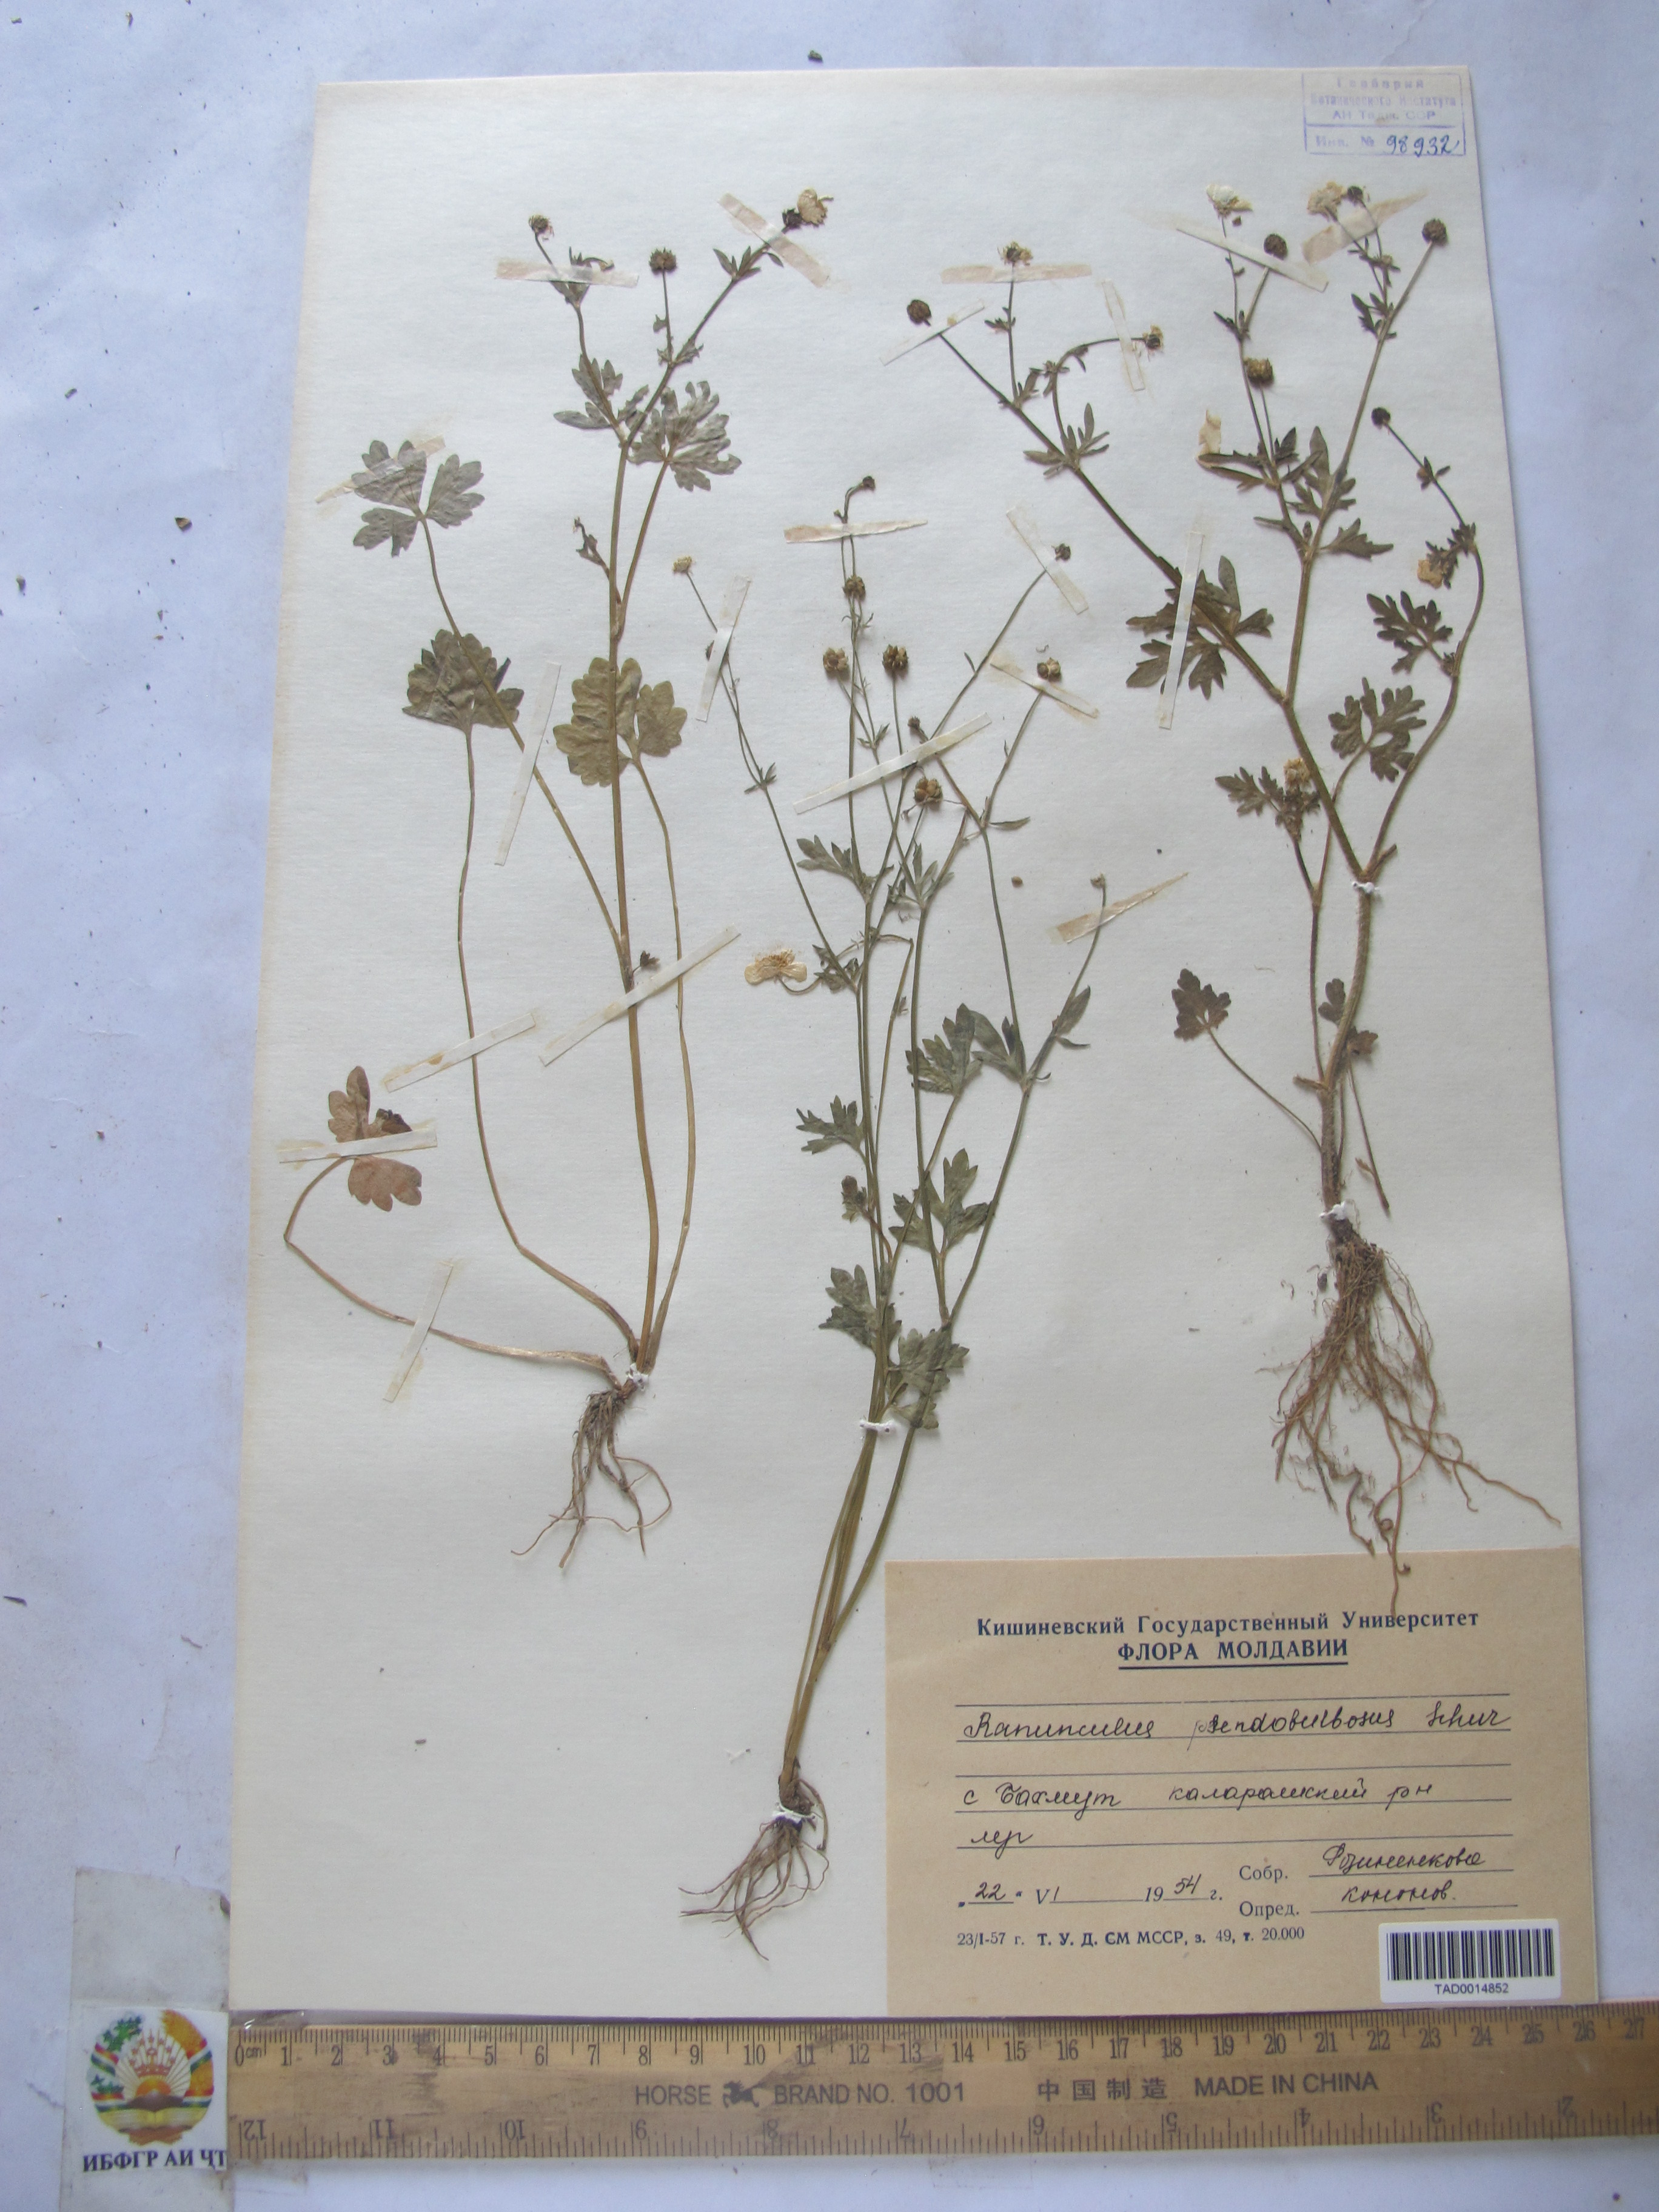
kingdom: Plantae
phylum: Tracheophyta
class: Magnoliopsida
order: Ranunculales
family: Ranunculaceae
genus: Ranunculus
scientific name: Ranunculus sardous
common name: Hairy buttercup
